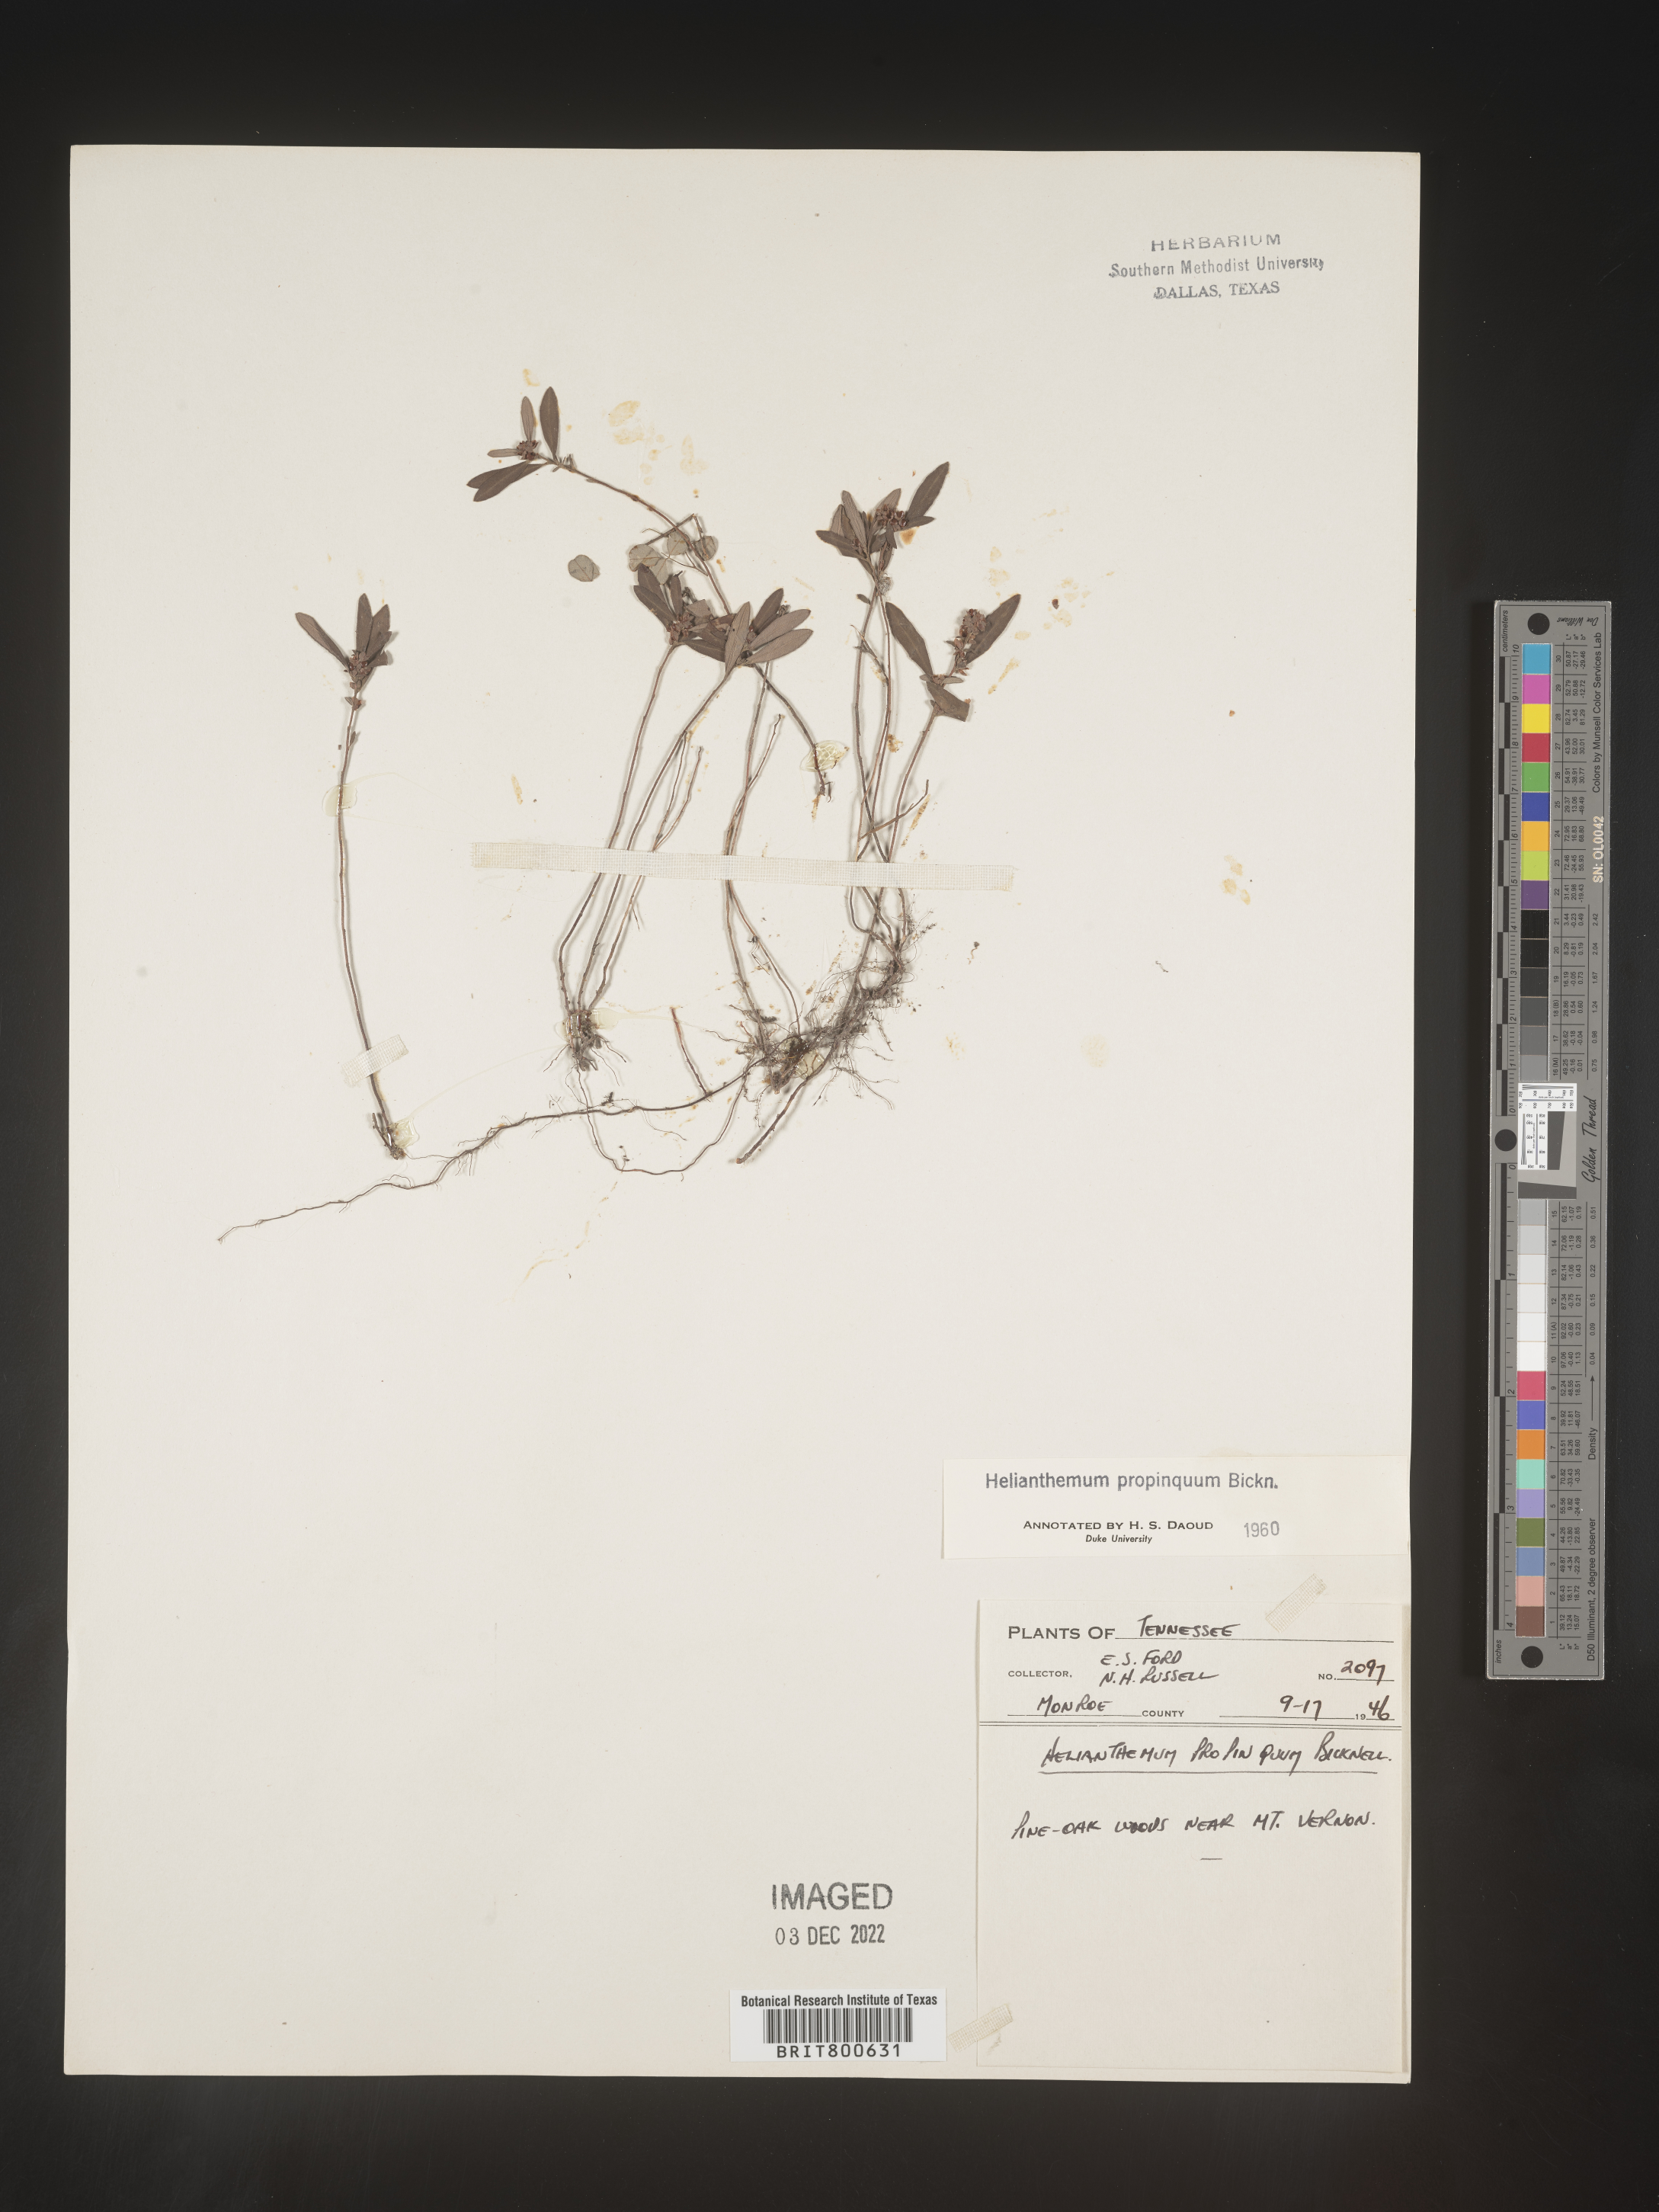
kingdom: Plantae
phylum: Tracheophyta
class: Magnoliopsida
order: Malvales
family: Cistaceae
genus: Helianthemum
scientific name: Helianthemum
